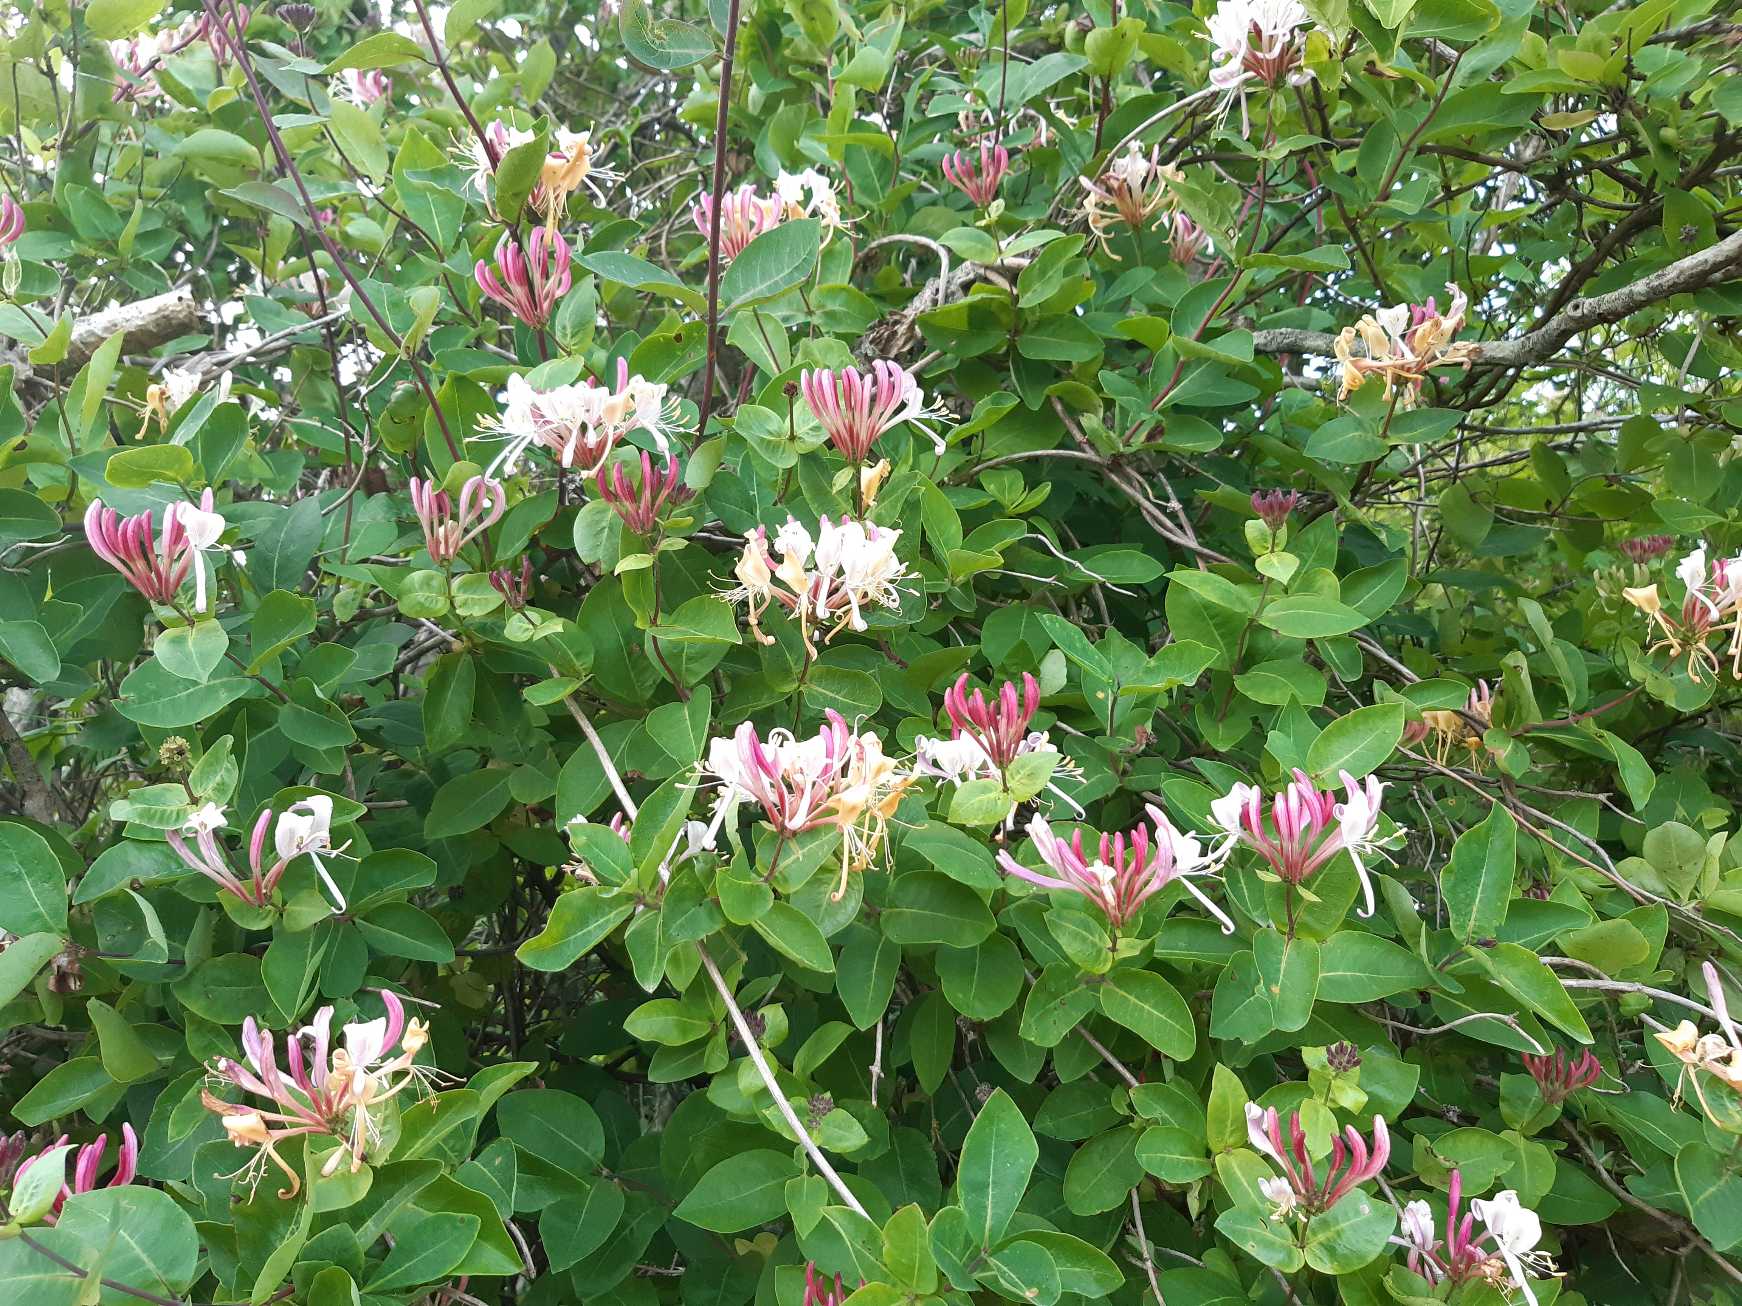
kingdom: Plantae
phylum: Tracheophyta
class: Magnoliopsida
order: Dipsacales
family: Caprifoliaceae
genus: Lonicera
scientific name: Lonicera periclymenum
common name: Almindelig gedeblad
